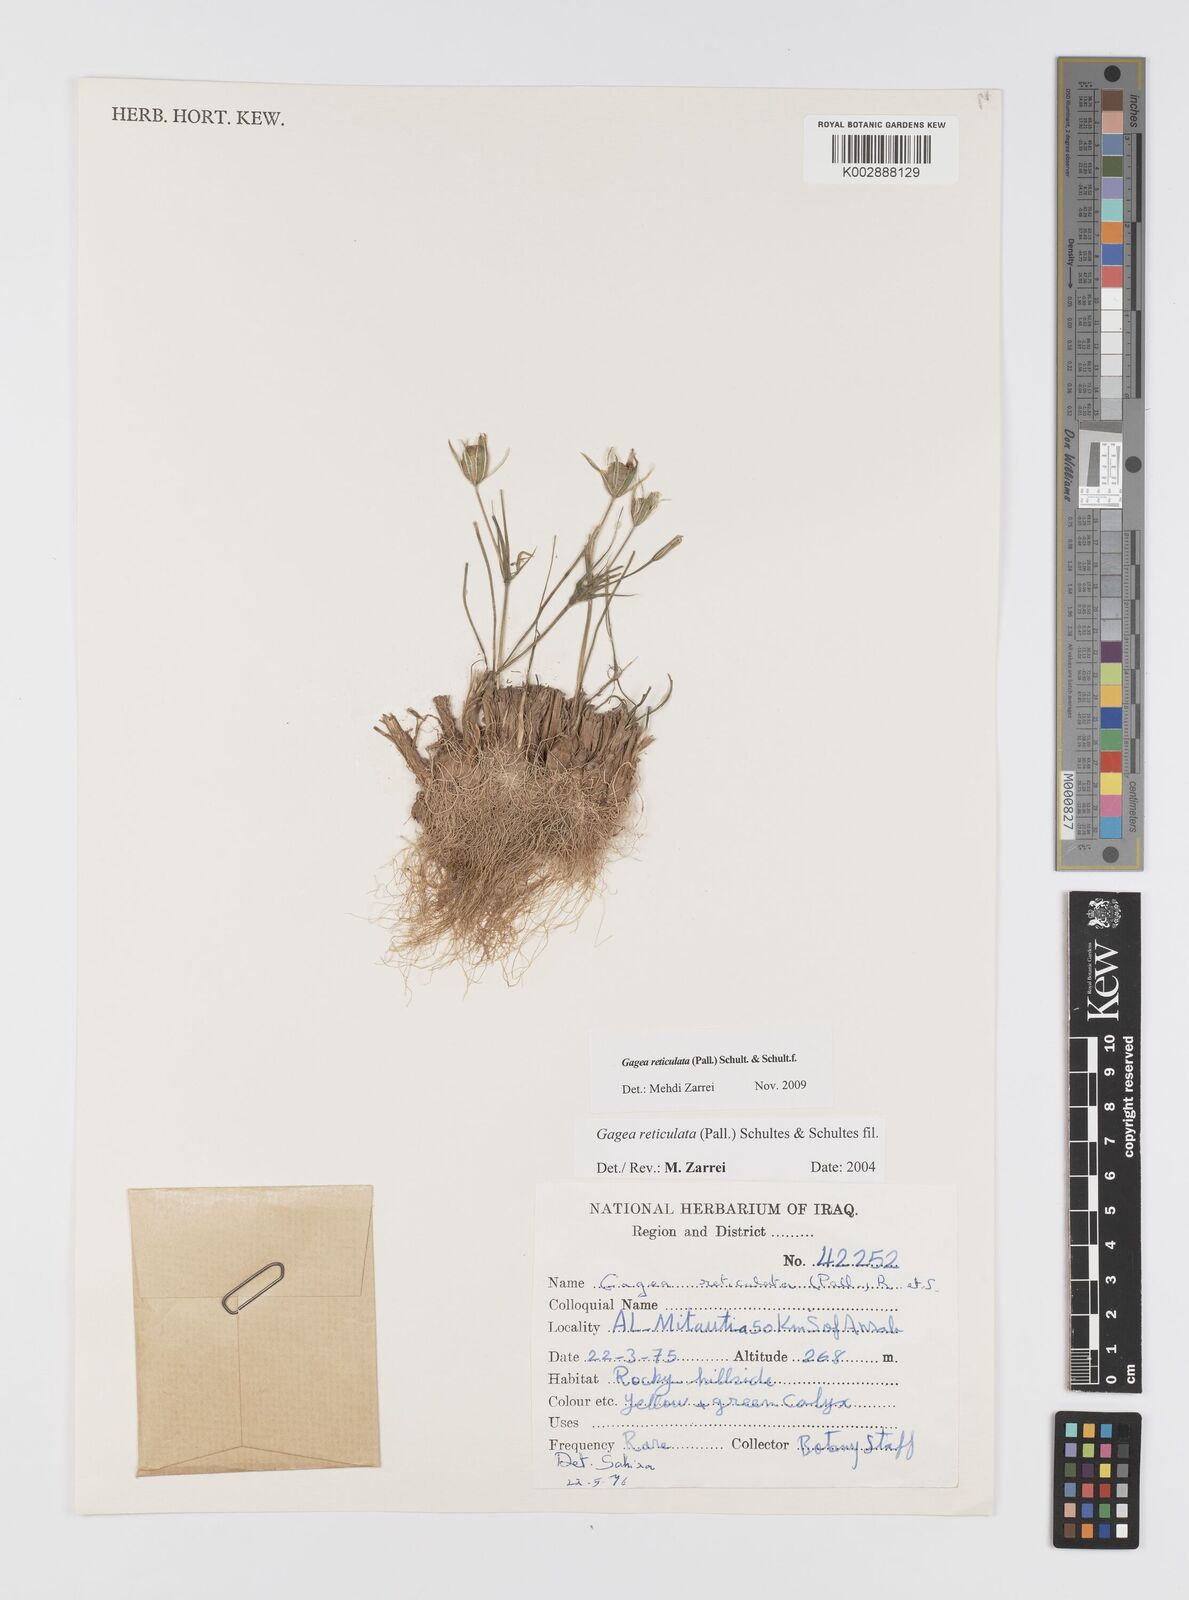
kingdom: Plantae
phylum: Tracheophyta
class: Liliopsida
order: Liliales
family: Liliaceae
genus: Gagea
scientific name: Gagea reticulata
